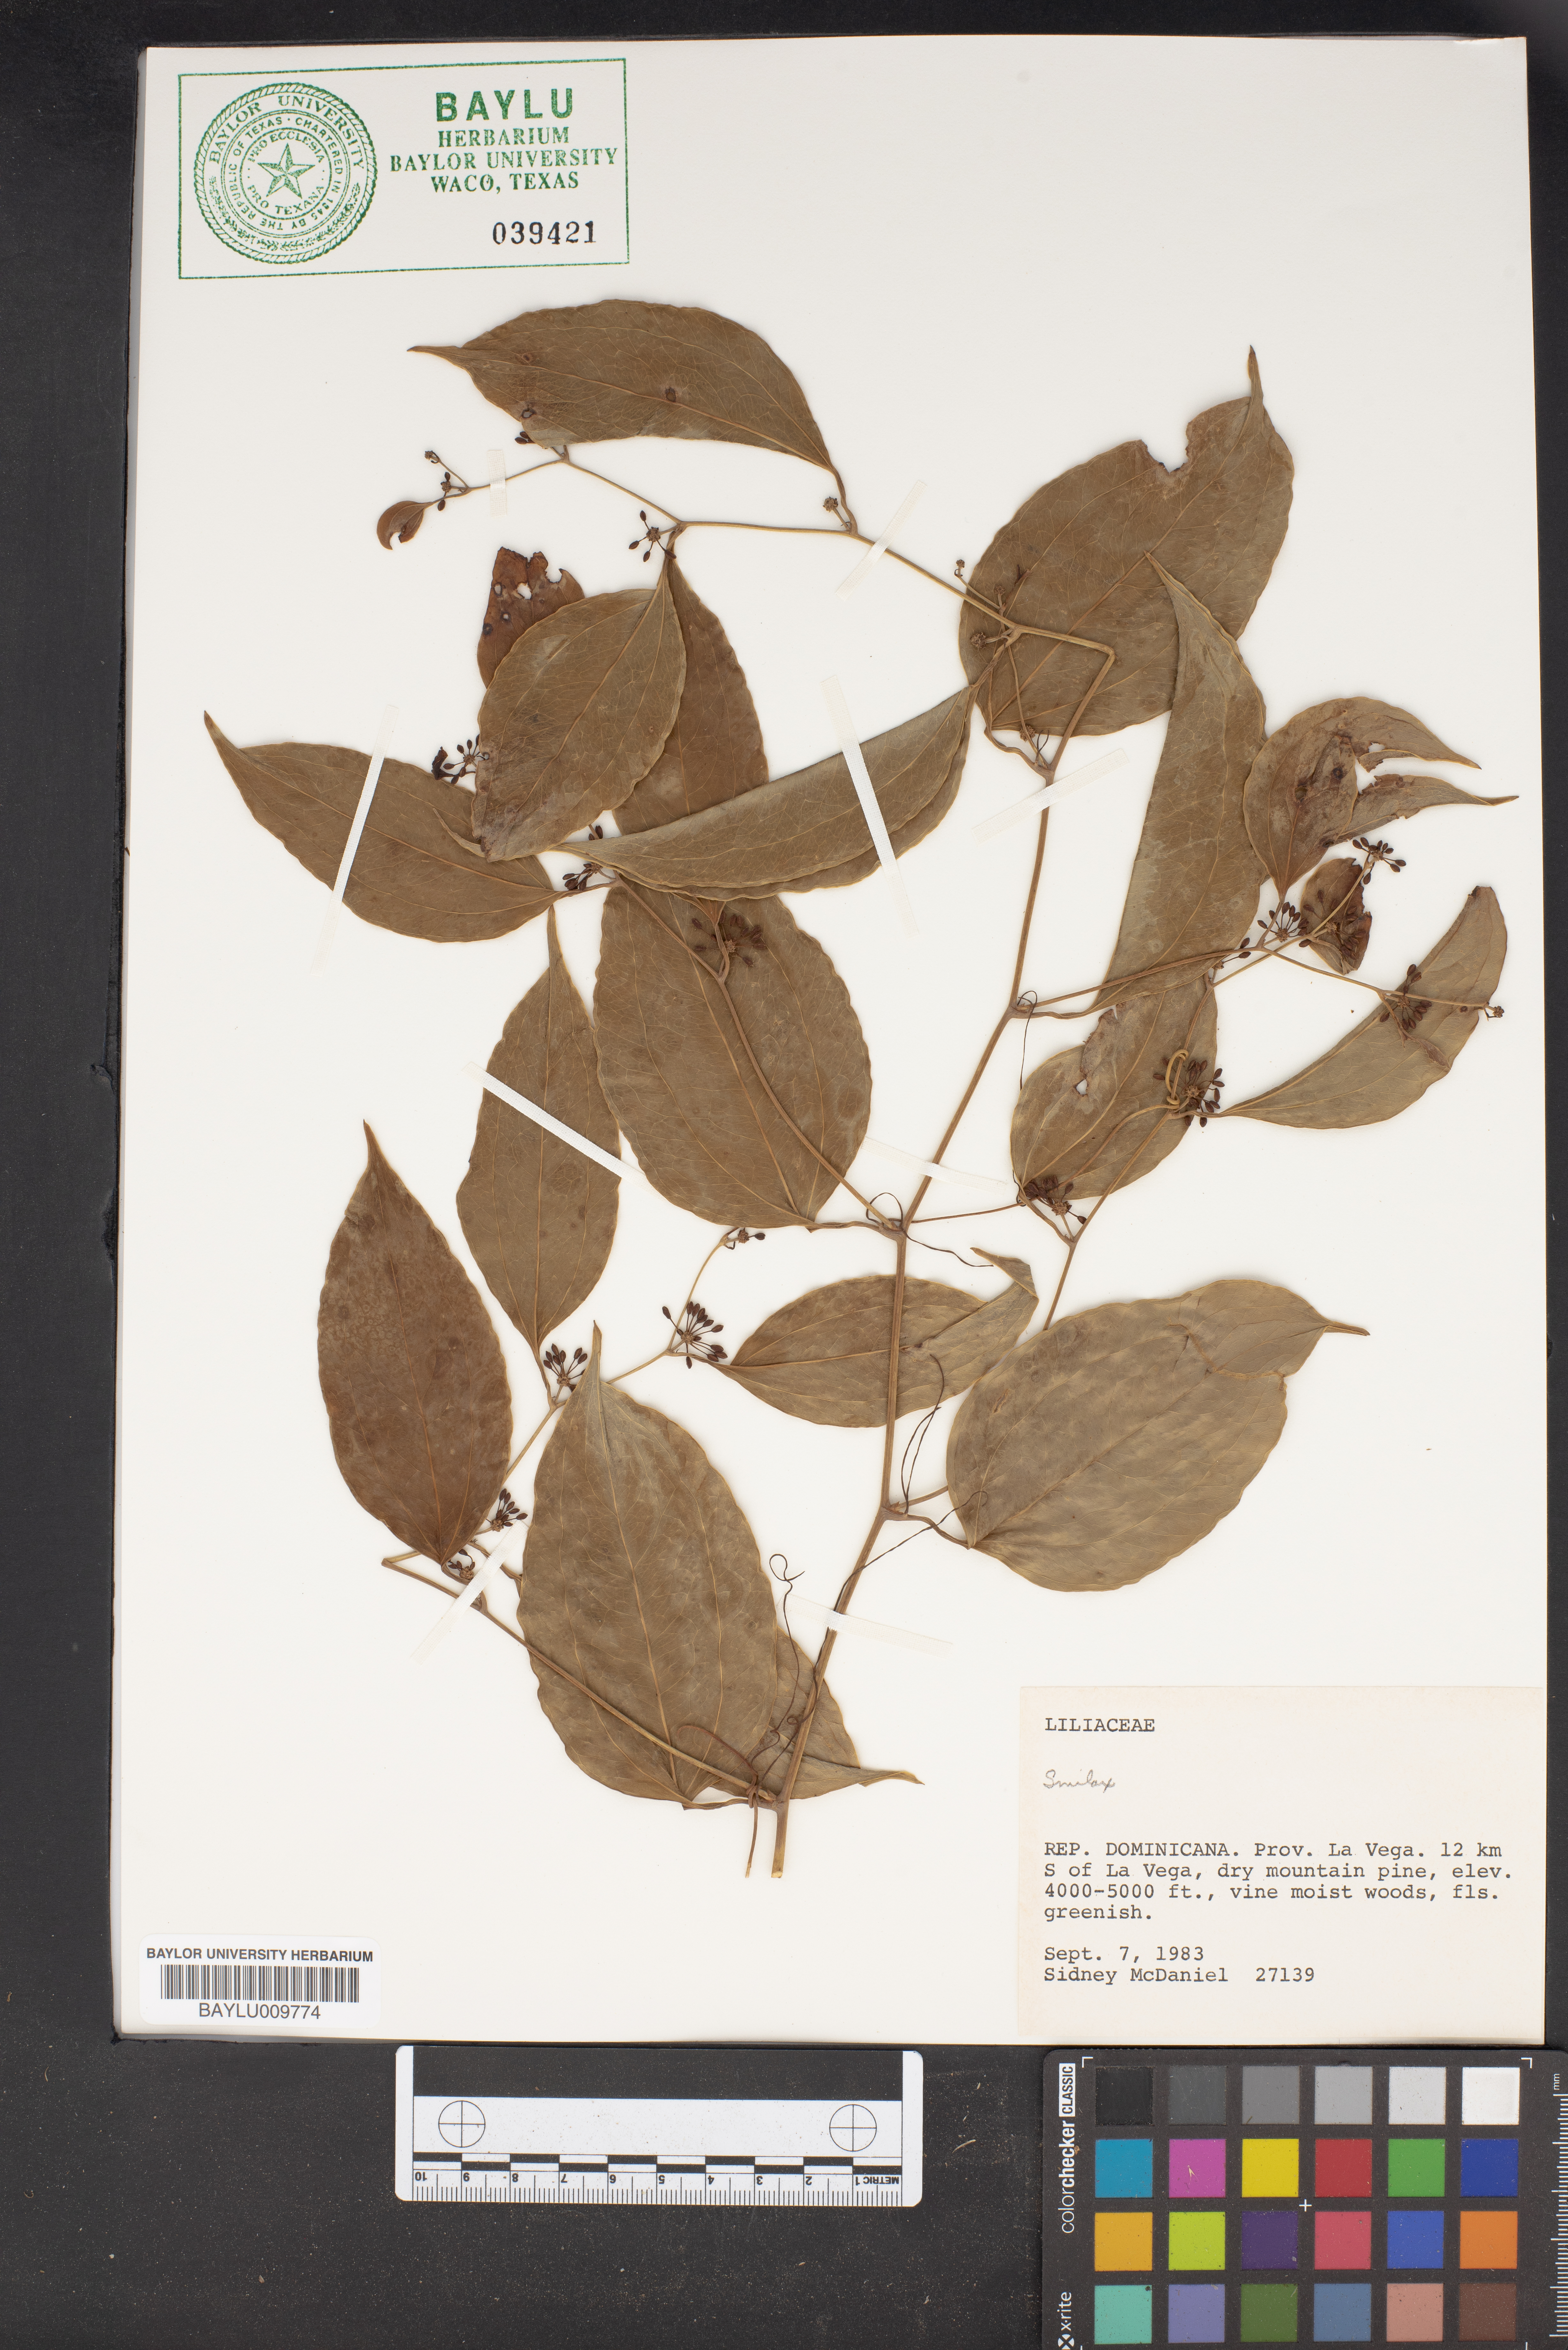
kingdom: Plantae
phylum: Tracheophyta
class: Liliopsida
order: Liliales
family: Smilacaceae
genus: Smilax
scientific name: Smilax
